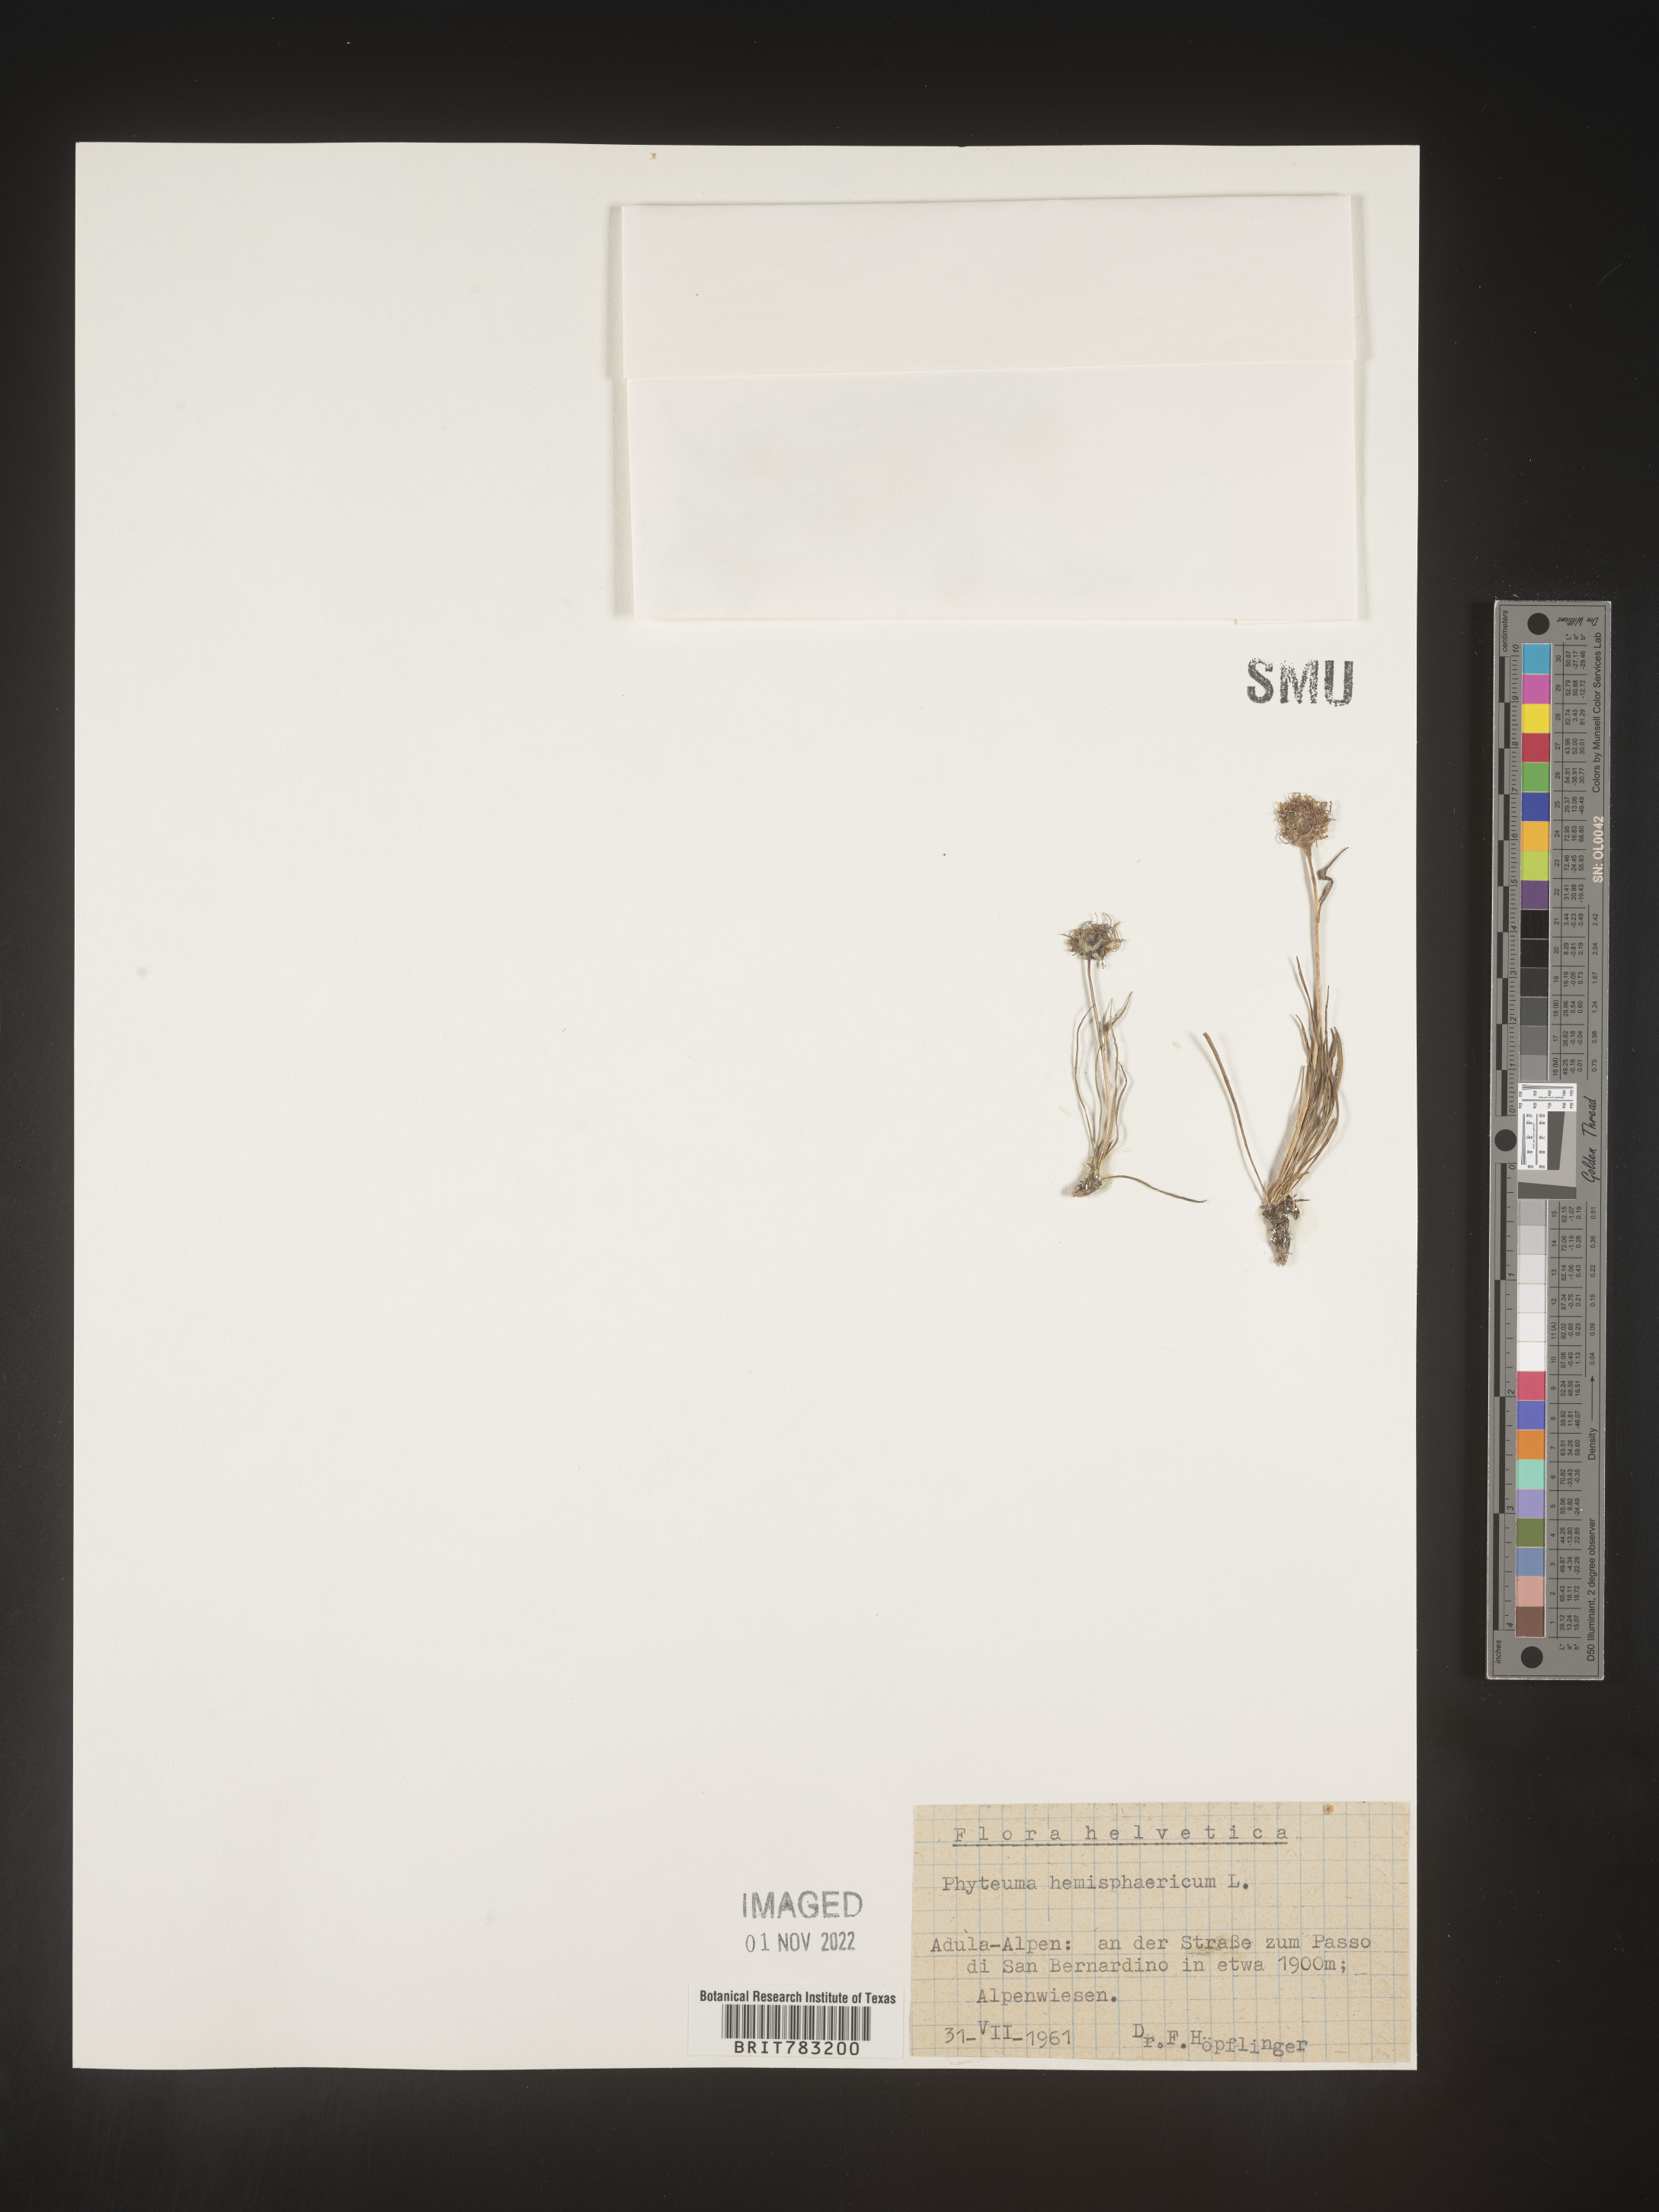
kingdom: Plantae
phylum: Tracheophyta
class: Magnoliopsida
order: Asterales
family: Campanulaceae
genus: Phyteuma
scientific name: Phyteuma
